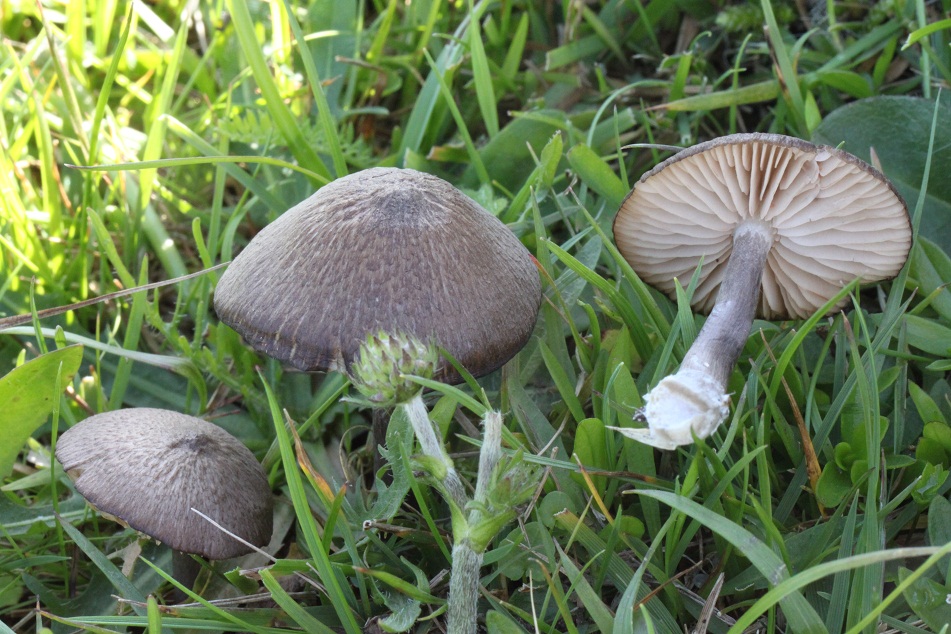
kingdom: Fungi
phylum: Basidiomycota
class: Agaricomycetes
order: Agaricales
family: Entolomataceae
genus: Entoloma
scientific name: Entoloma griseocyaneum
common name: gråblå rødblad
